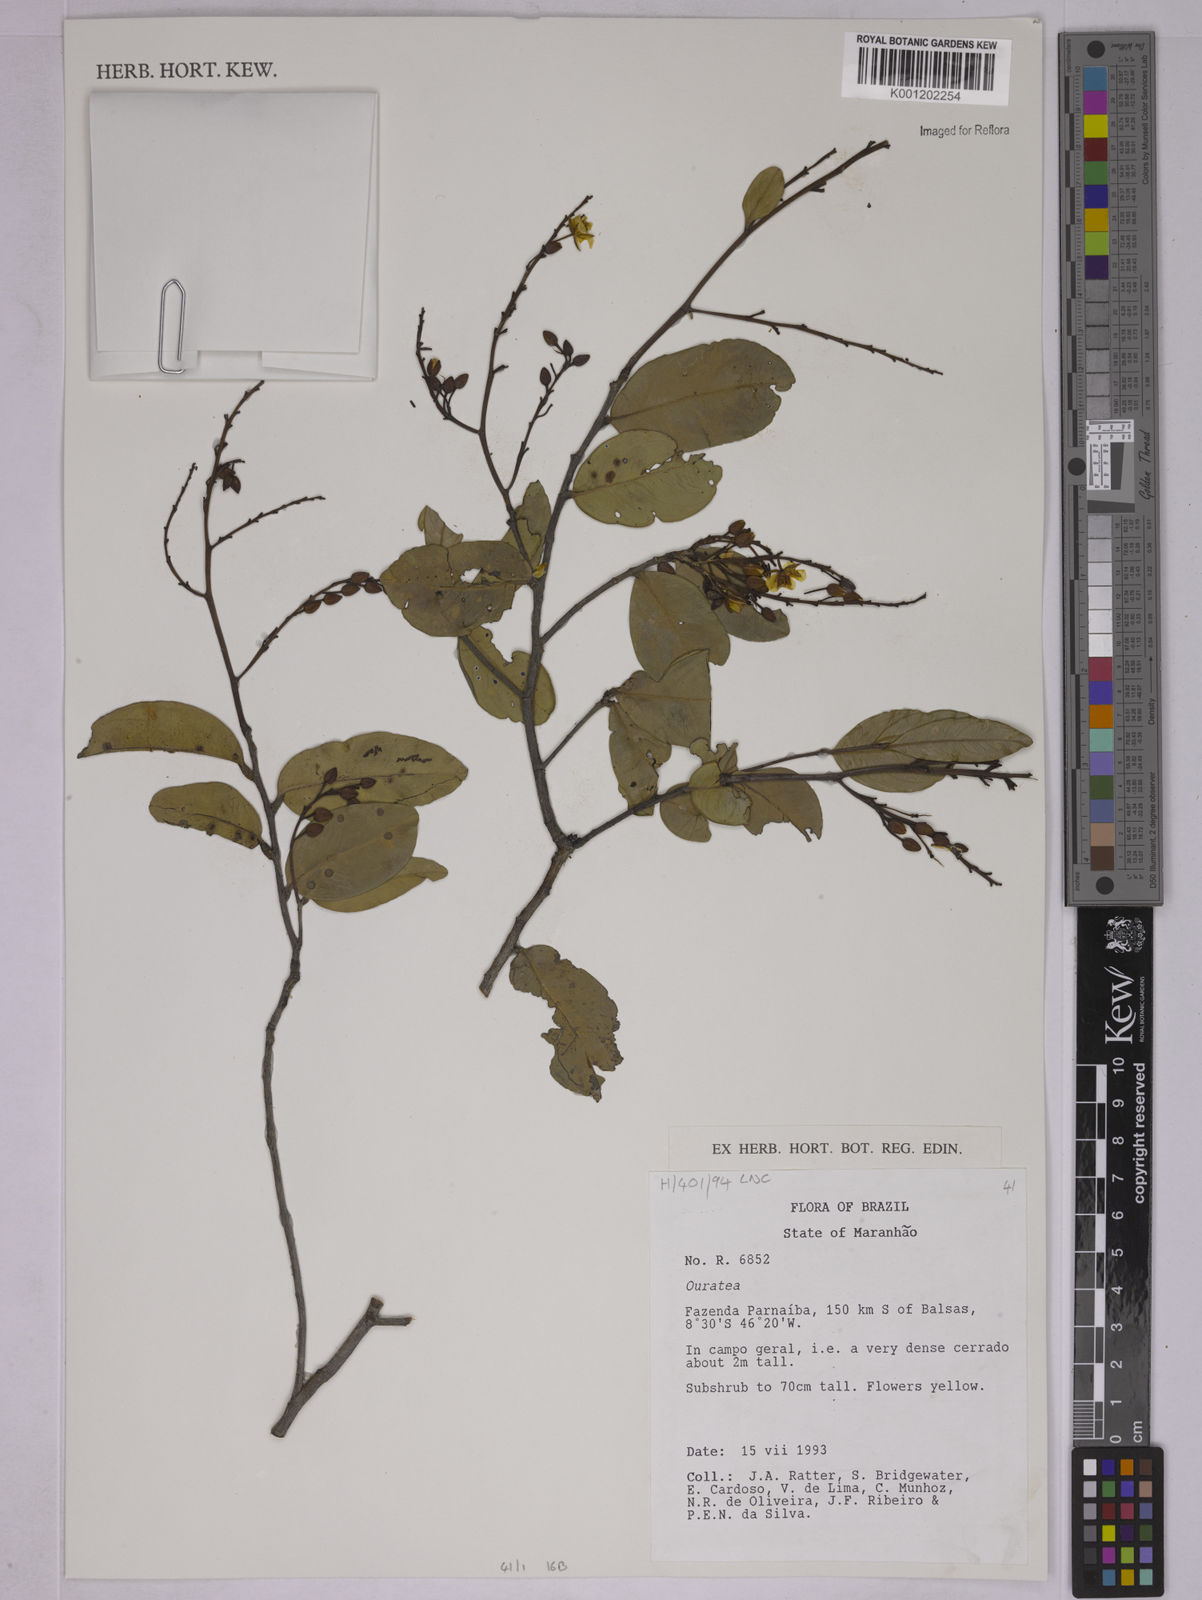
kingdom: Plantae
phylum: Tracheophyta
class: Magnoliopsida
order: Malpighiales
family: Ochnaceae
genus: Ouratea
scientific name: Ouratea
